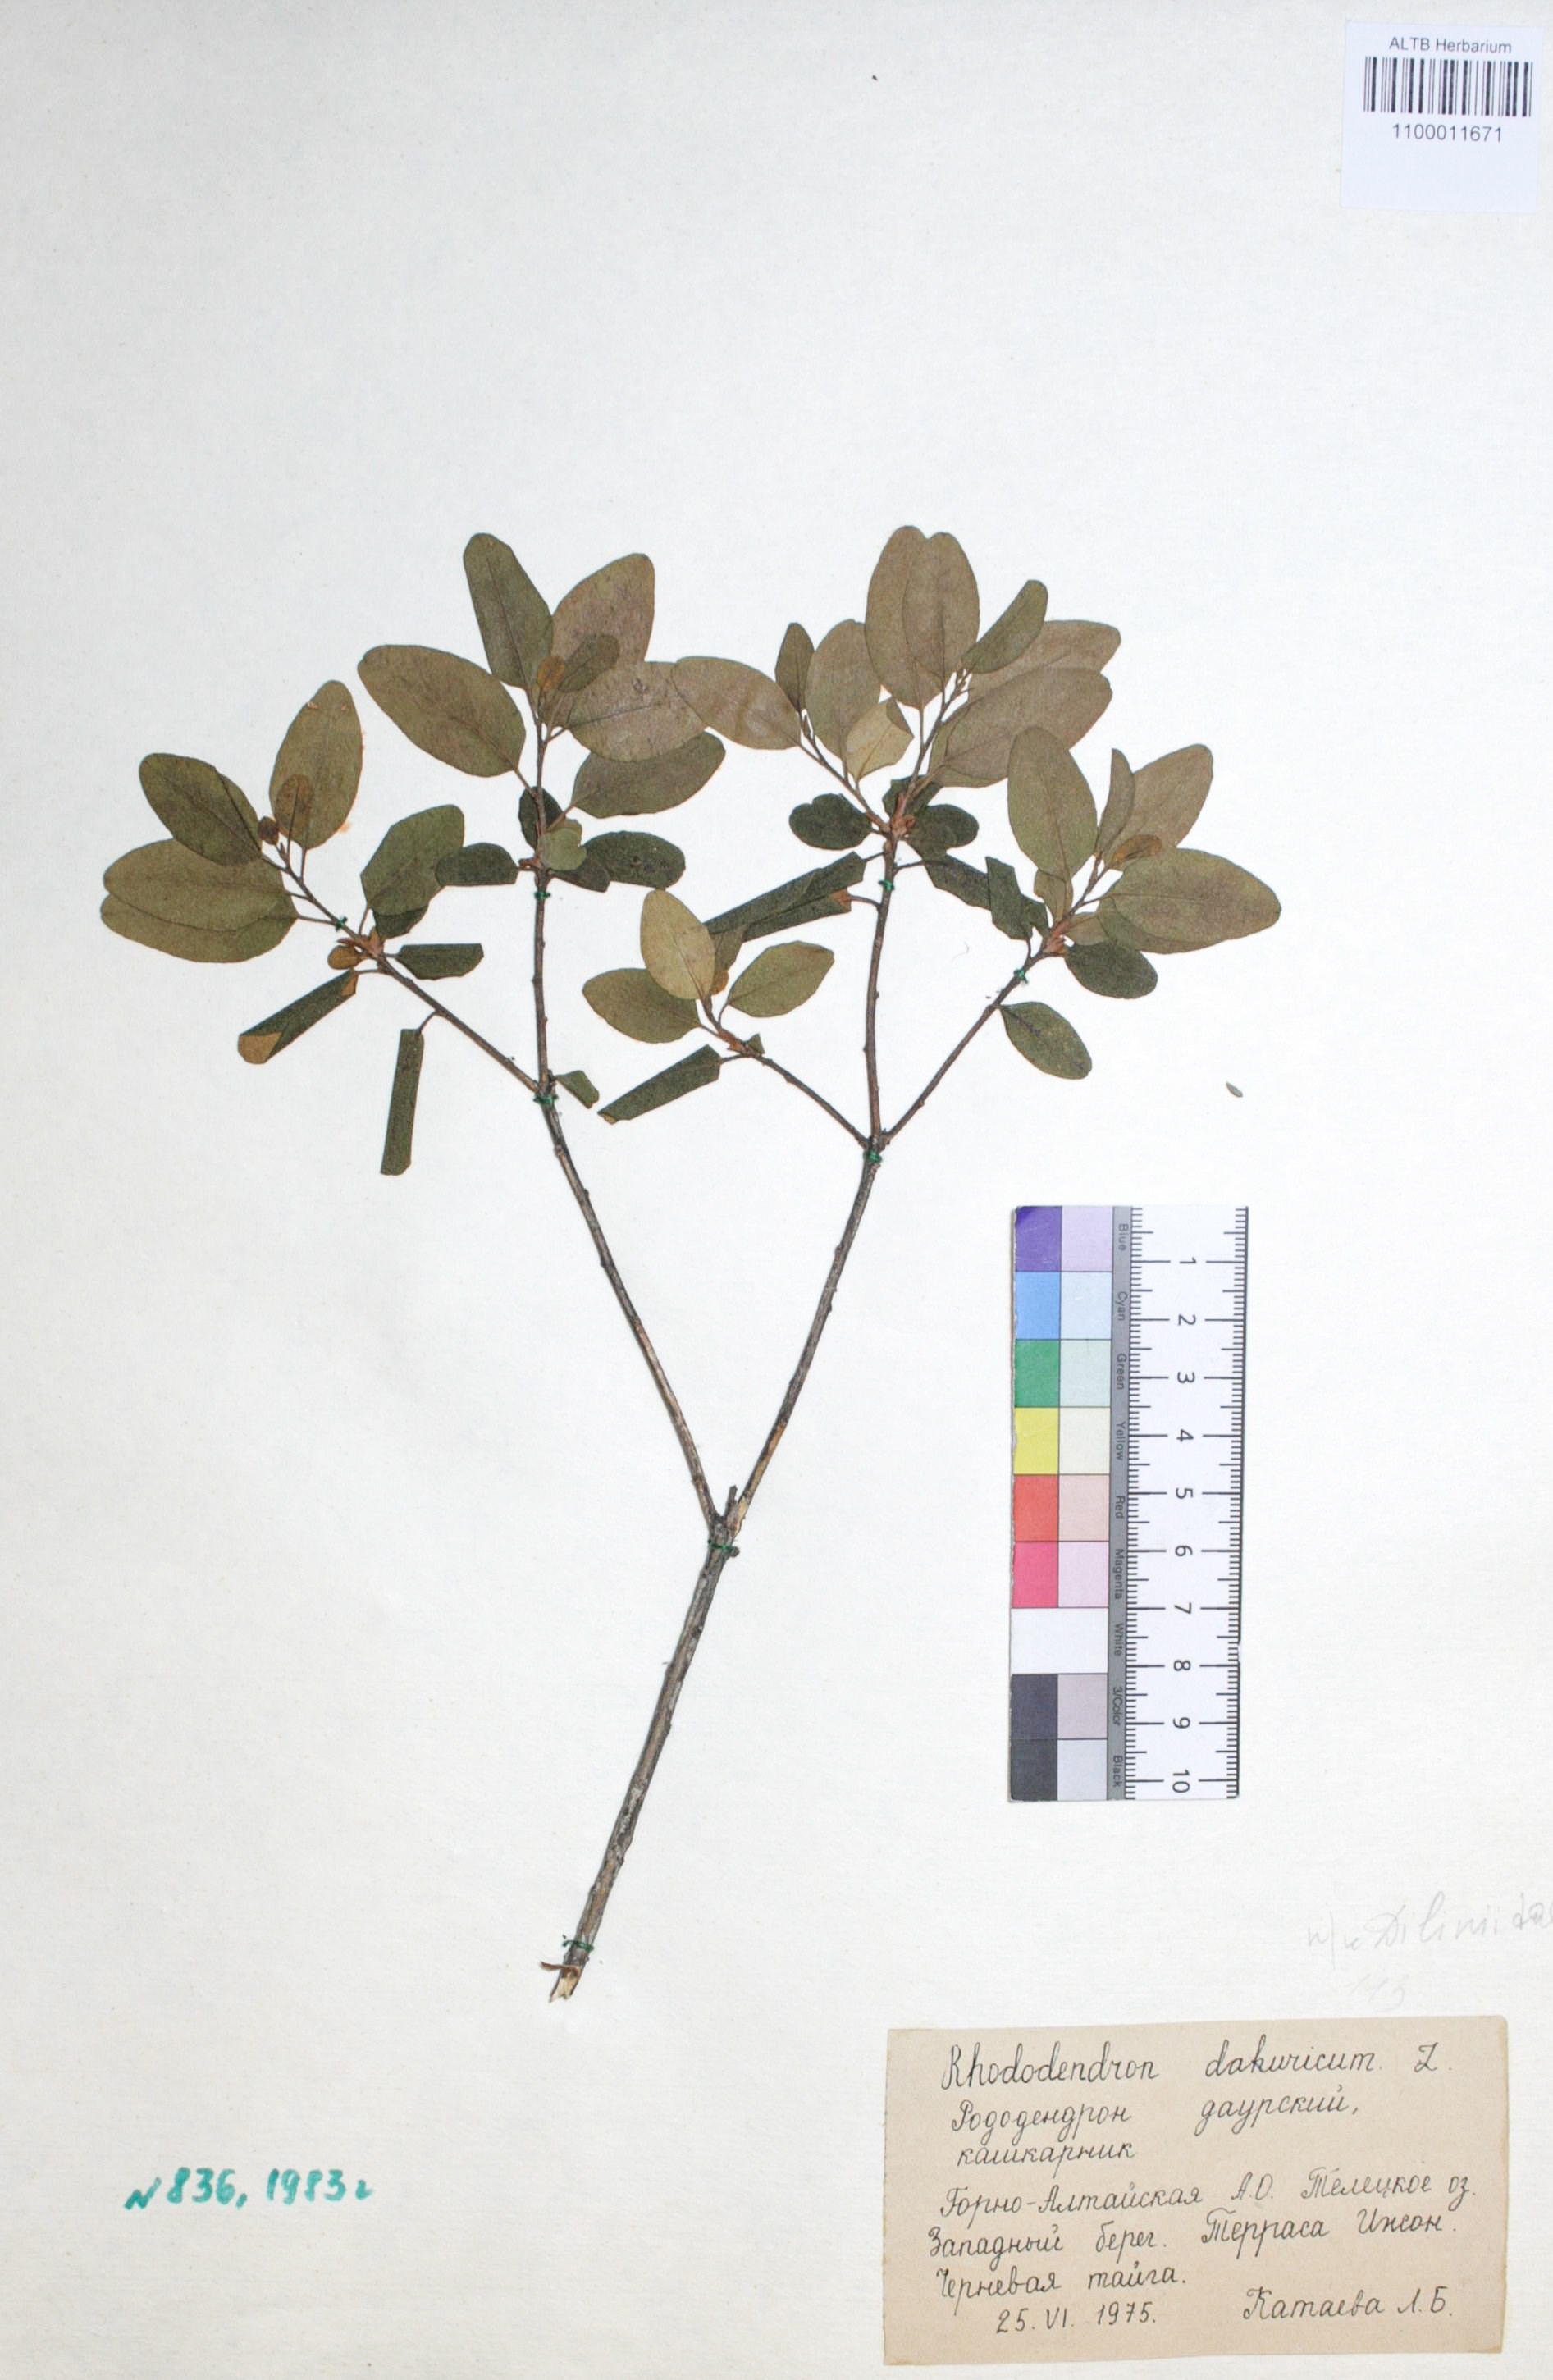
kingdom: Plantae
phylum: Tracheophyta
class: Magnoliopsida
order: Ericales
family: Ericaceae
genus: Rhododendron
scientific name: Rhododendron dahuricum
